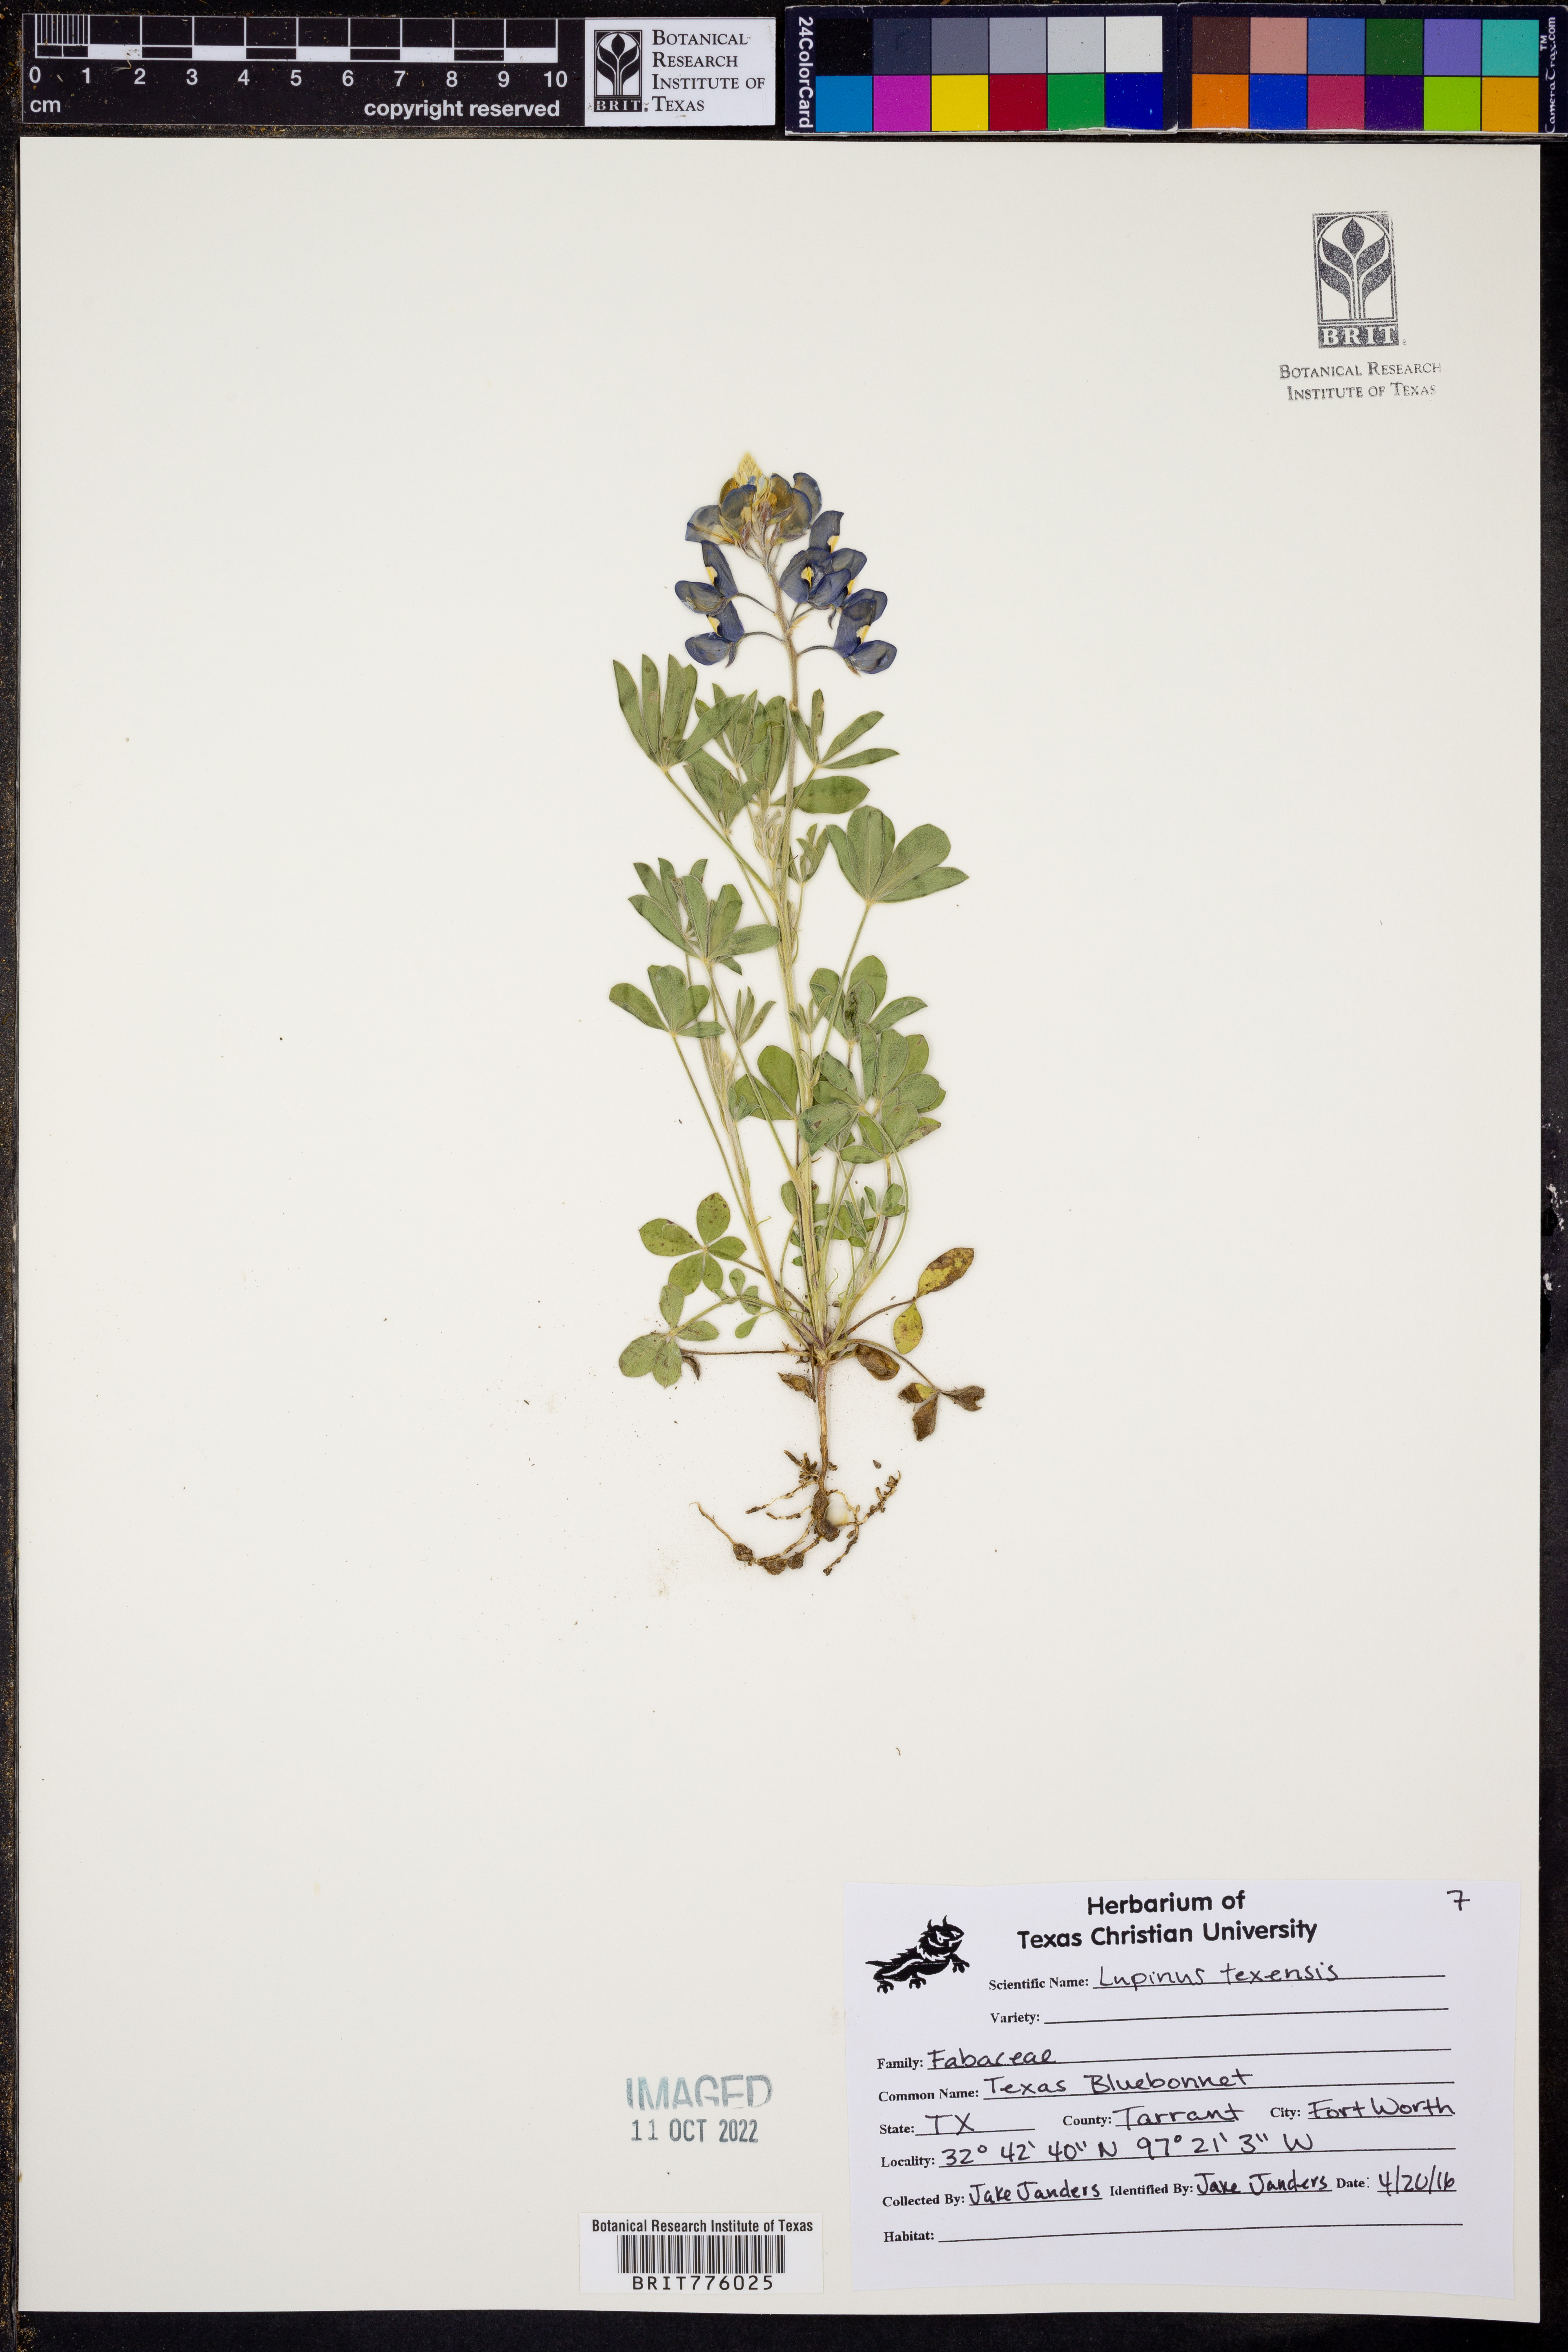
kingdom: Plantae
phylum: Tracheophyta
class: Magnoliopsida
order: Fabales
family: Fabaceae
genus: Lupinus
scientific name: Lupinus texensis
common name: Texas bluebonnet
